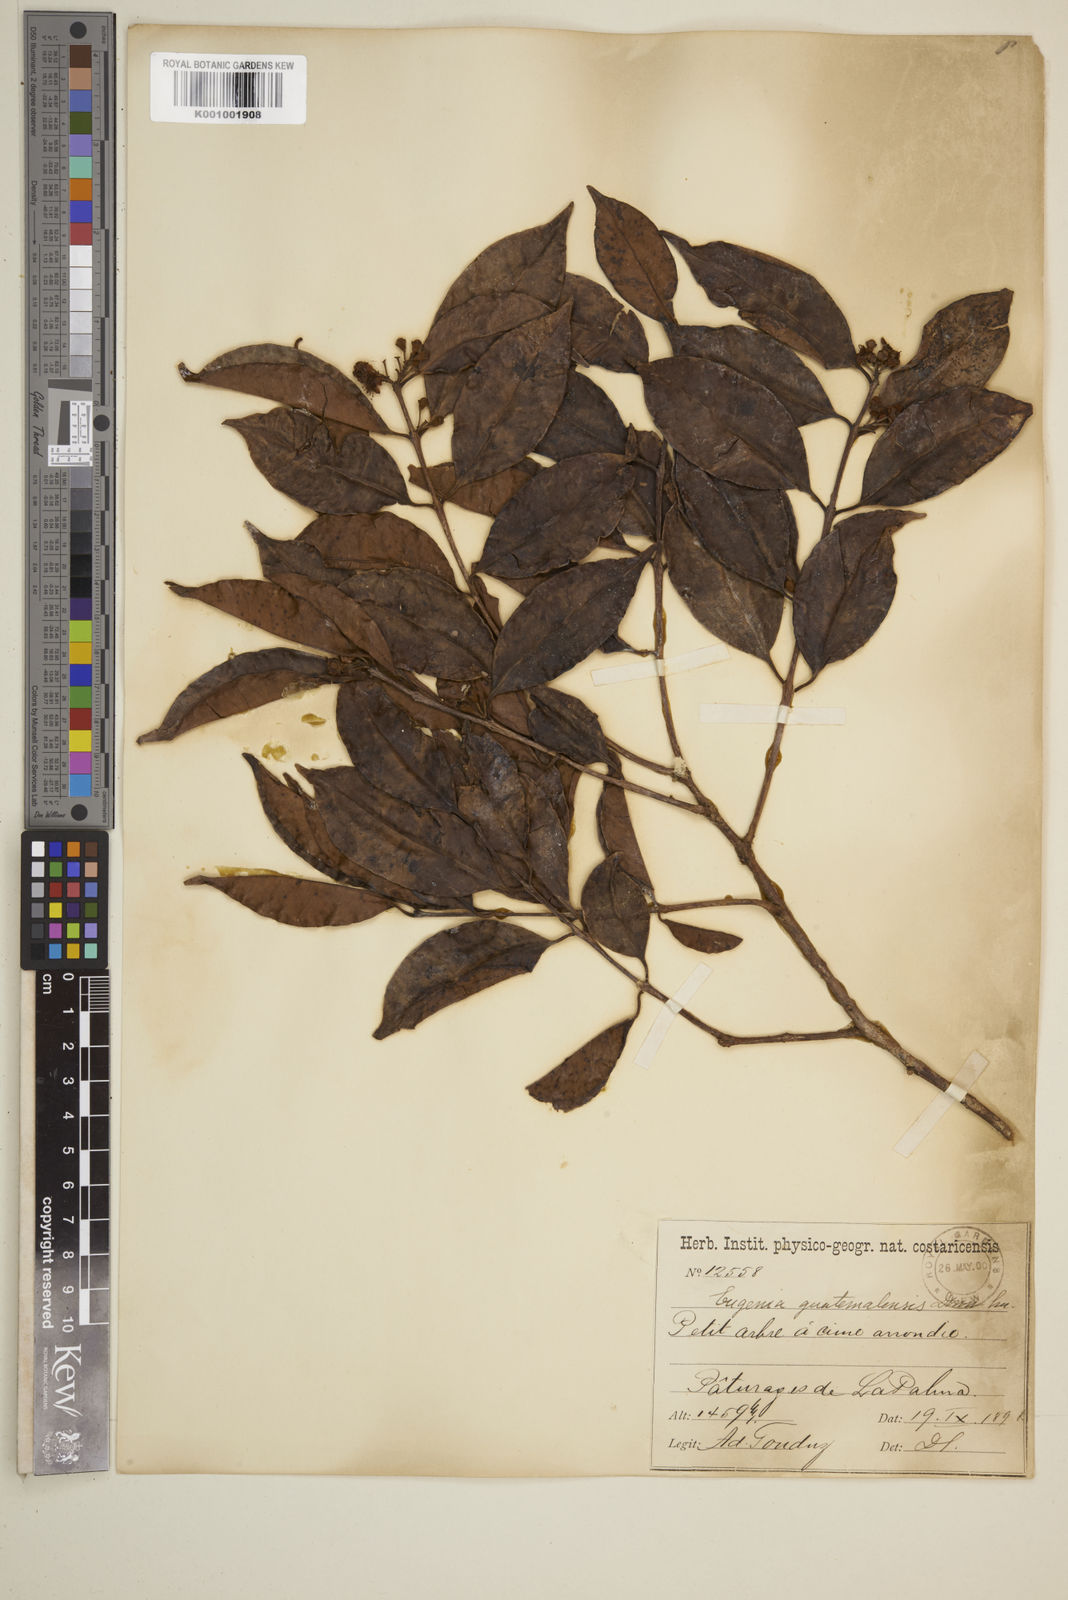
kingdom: Plantae
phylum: Tracheophyta
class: Magnoliopsida
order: Myrtales
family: Myrtaceae
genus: Eugenia
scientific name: Eugenia guatemalensis
